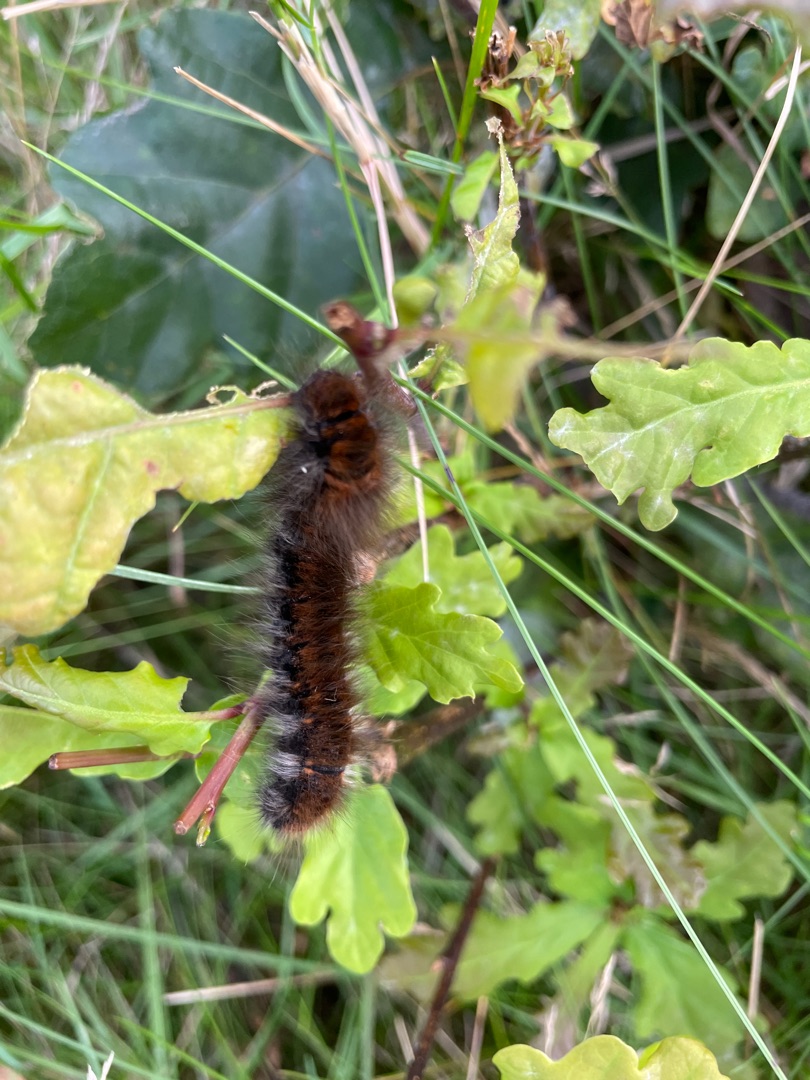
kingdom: Animalia
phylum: Arthropoda
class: Insecta
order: Lepidoptera
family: Lasiocampidae
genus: Macrothylacia
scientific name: Macrothylacia rubi
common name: Brombærspinder
